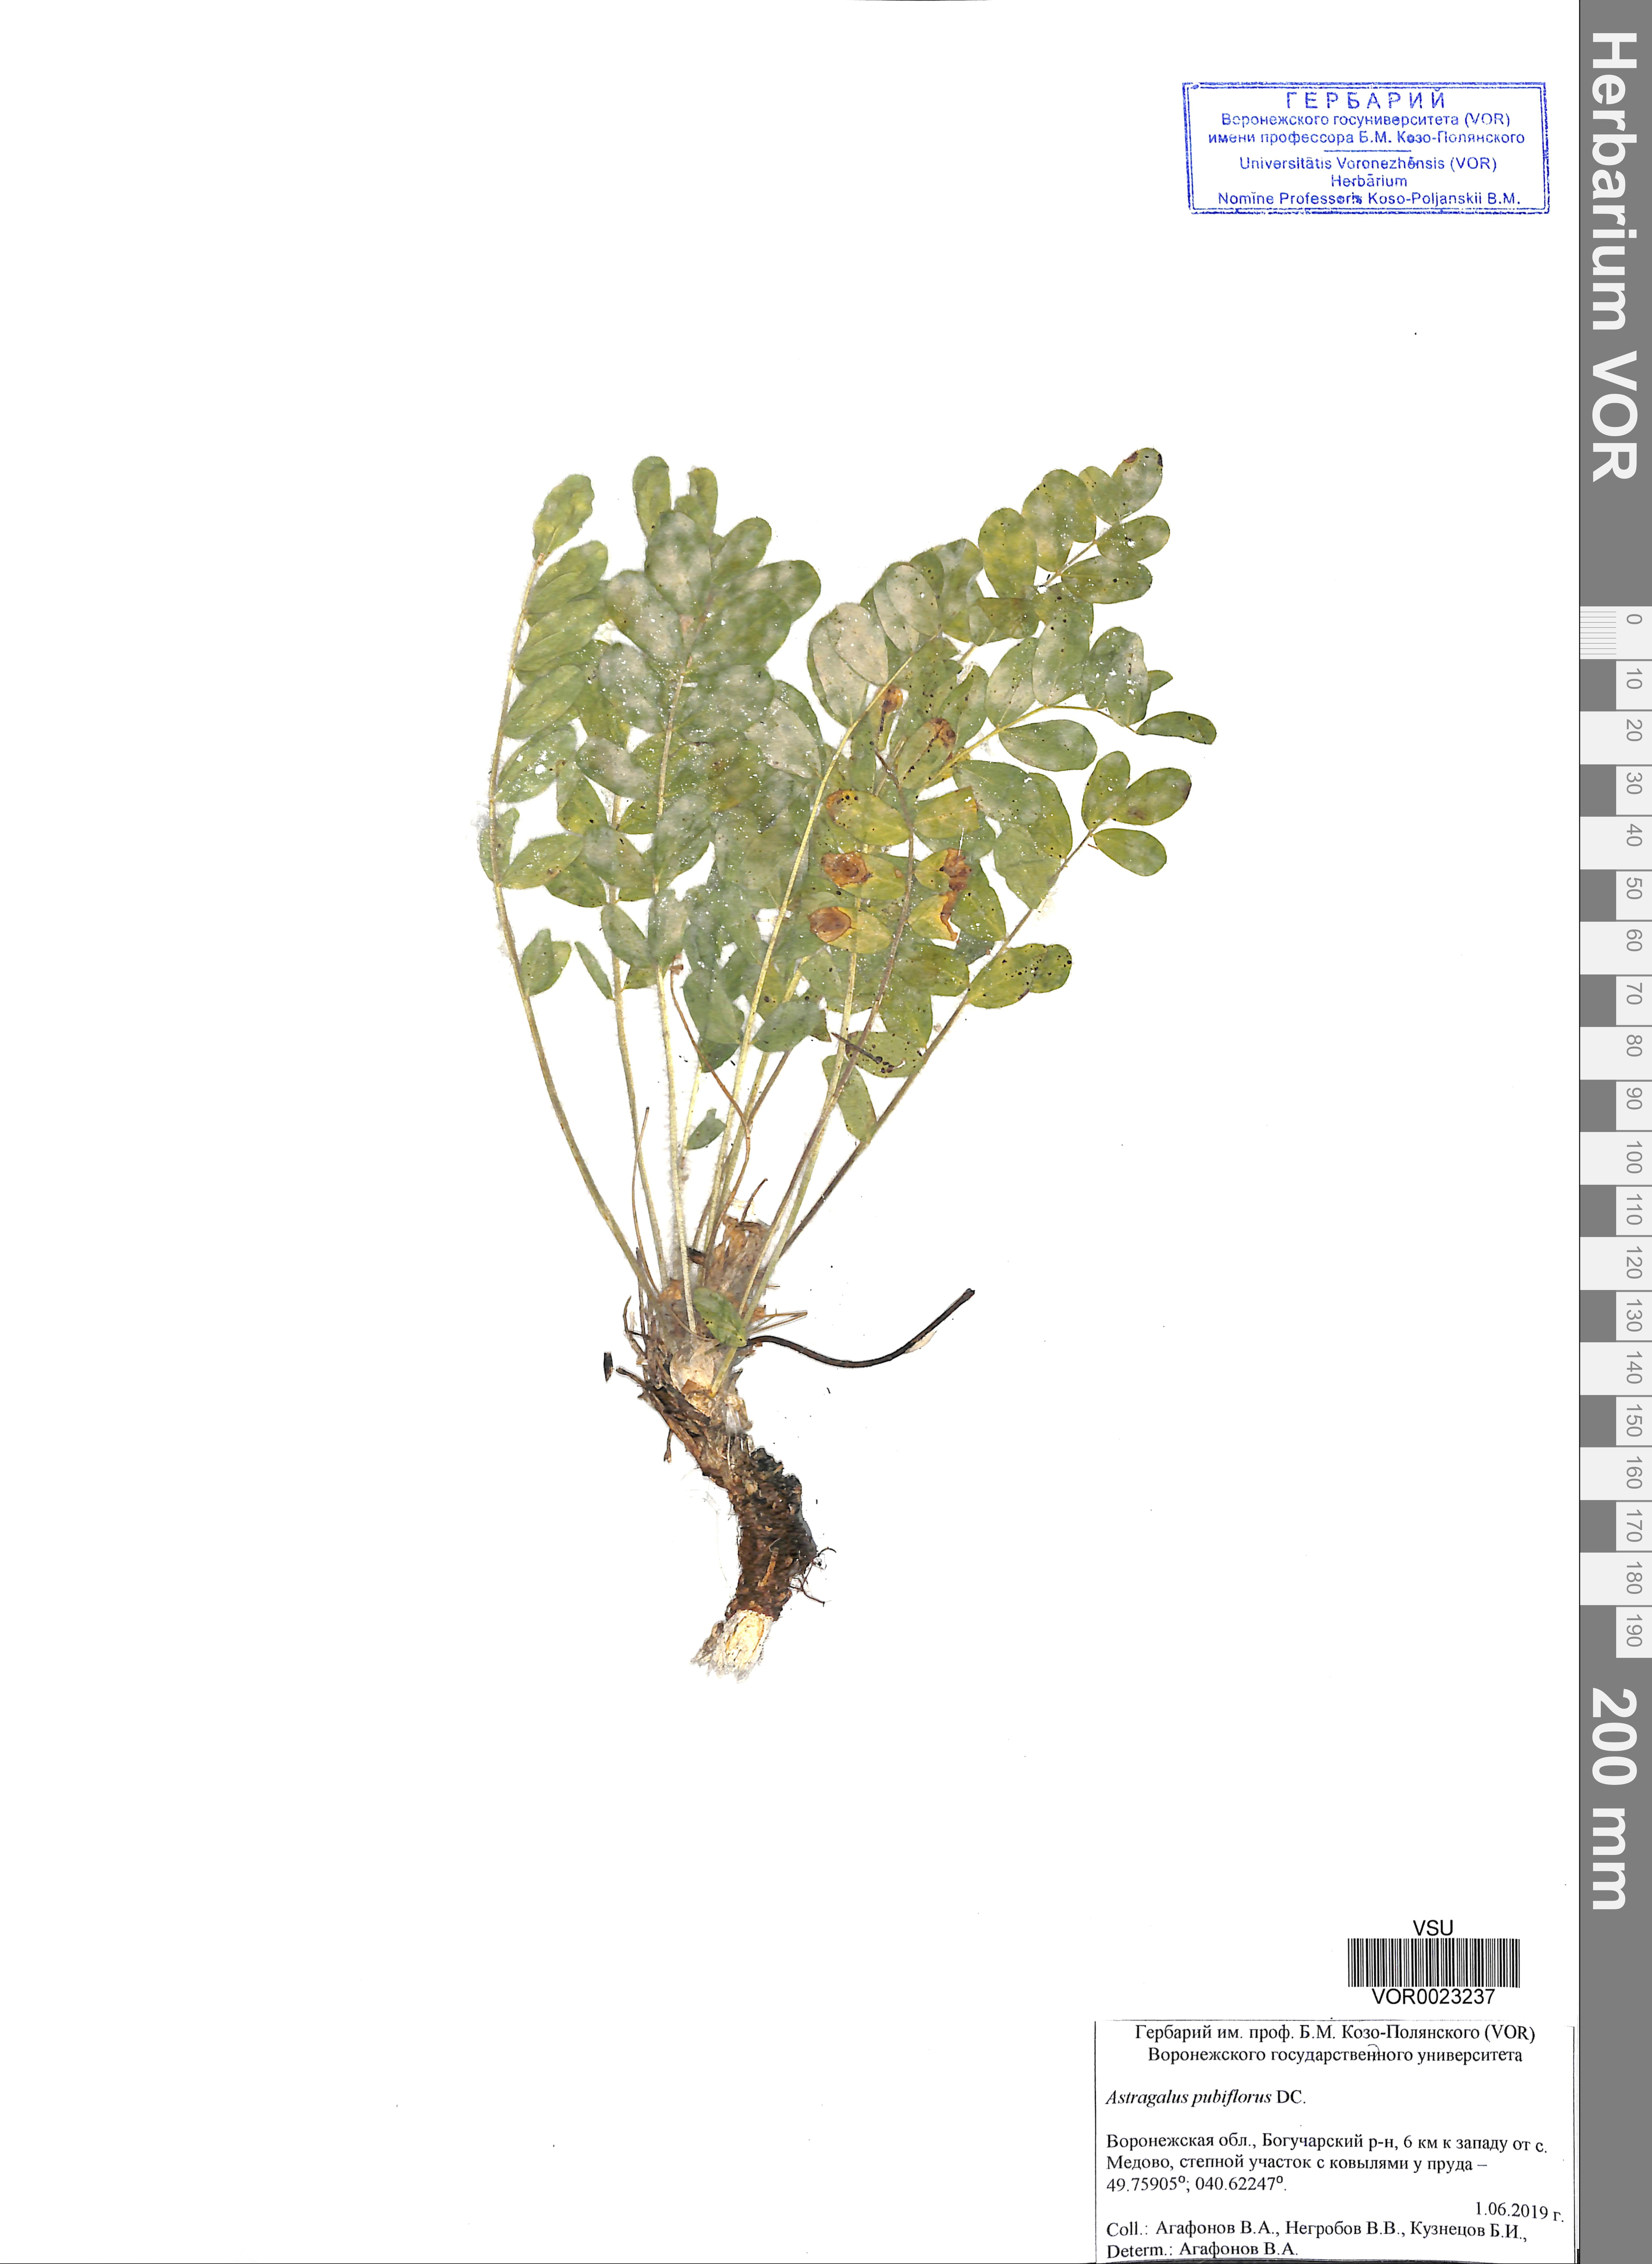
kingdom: Plantae
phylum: Tracheophyta
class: Magnoliopsida
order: Fabales
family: Fabaceae
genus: Astragalus
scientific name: Astragalus exscapus
